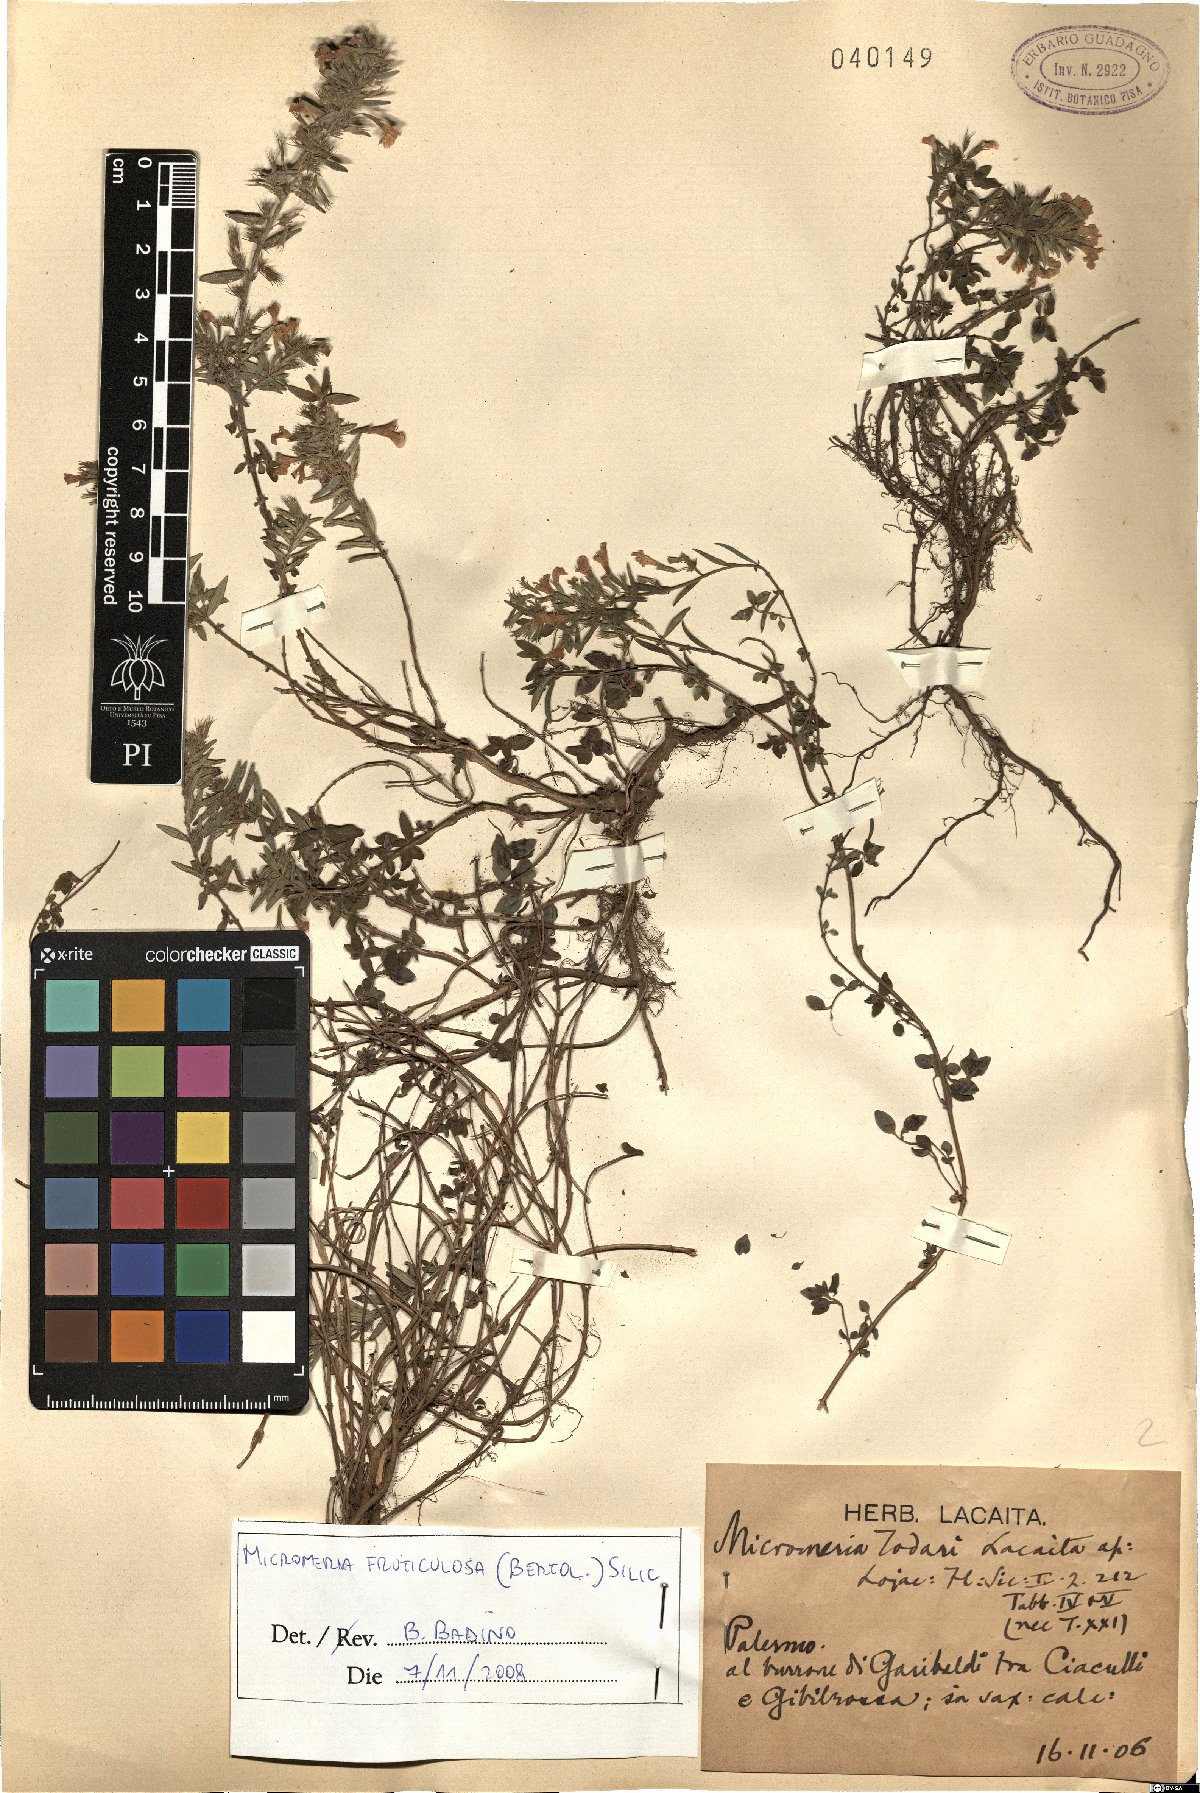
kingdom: Plantae
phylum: Tracheophyta
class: Magnoliopsida
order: Lamiales
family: Lamiaceae
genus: Micromeria
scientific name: Micromeria graeca
